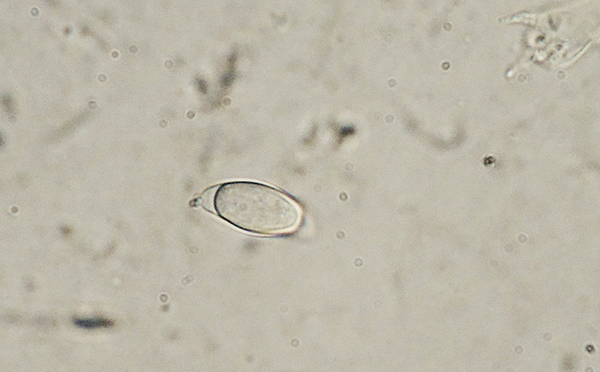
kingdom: Fungi
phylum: Basidiomycota
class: Agaricomycetes
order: Jaapiales
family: Jaapiaceae
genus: Jaapia
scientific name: Jaapia argillacea
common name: lerfarvet sumpspind
